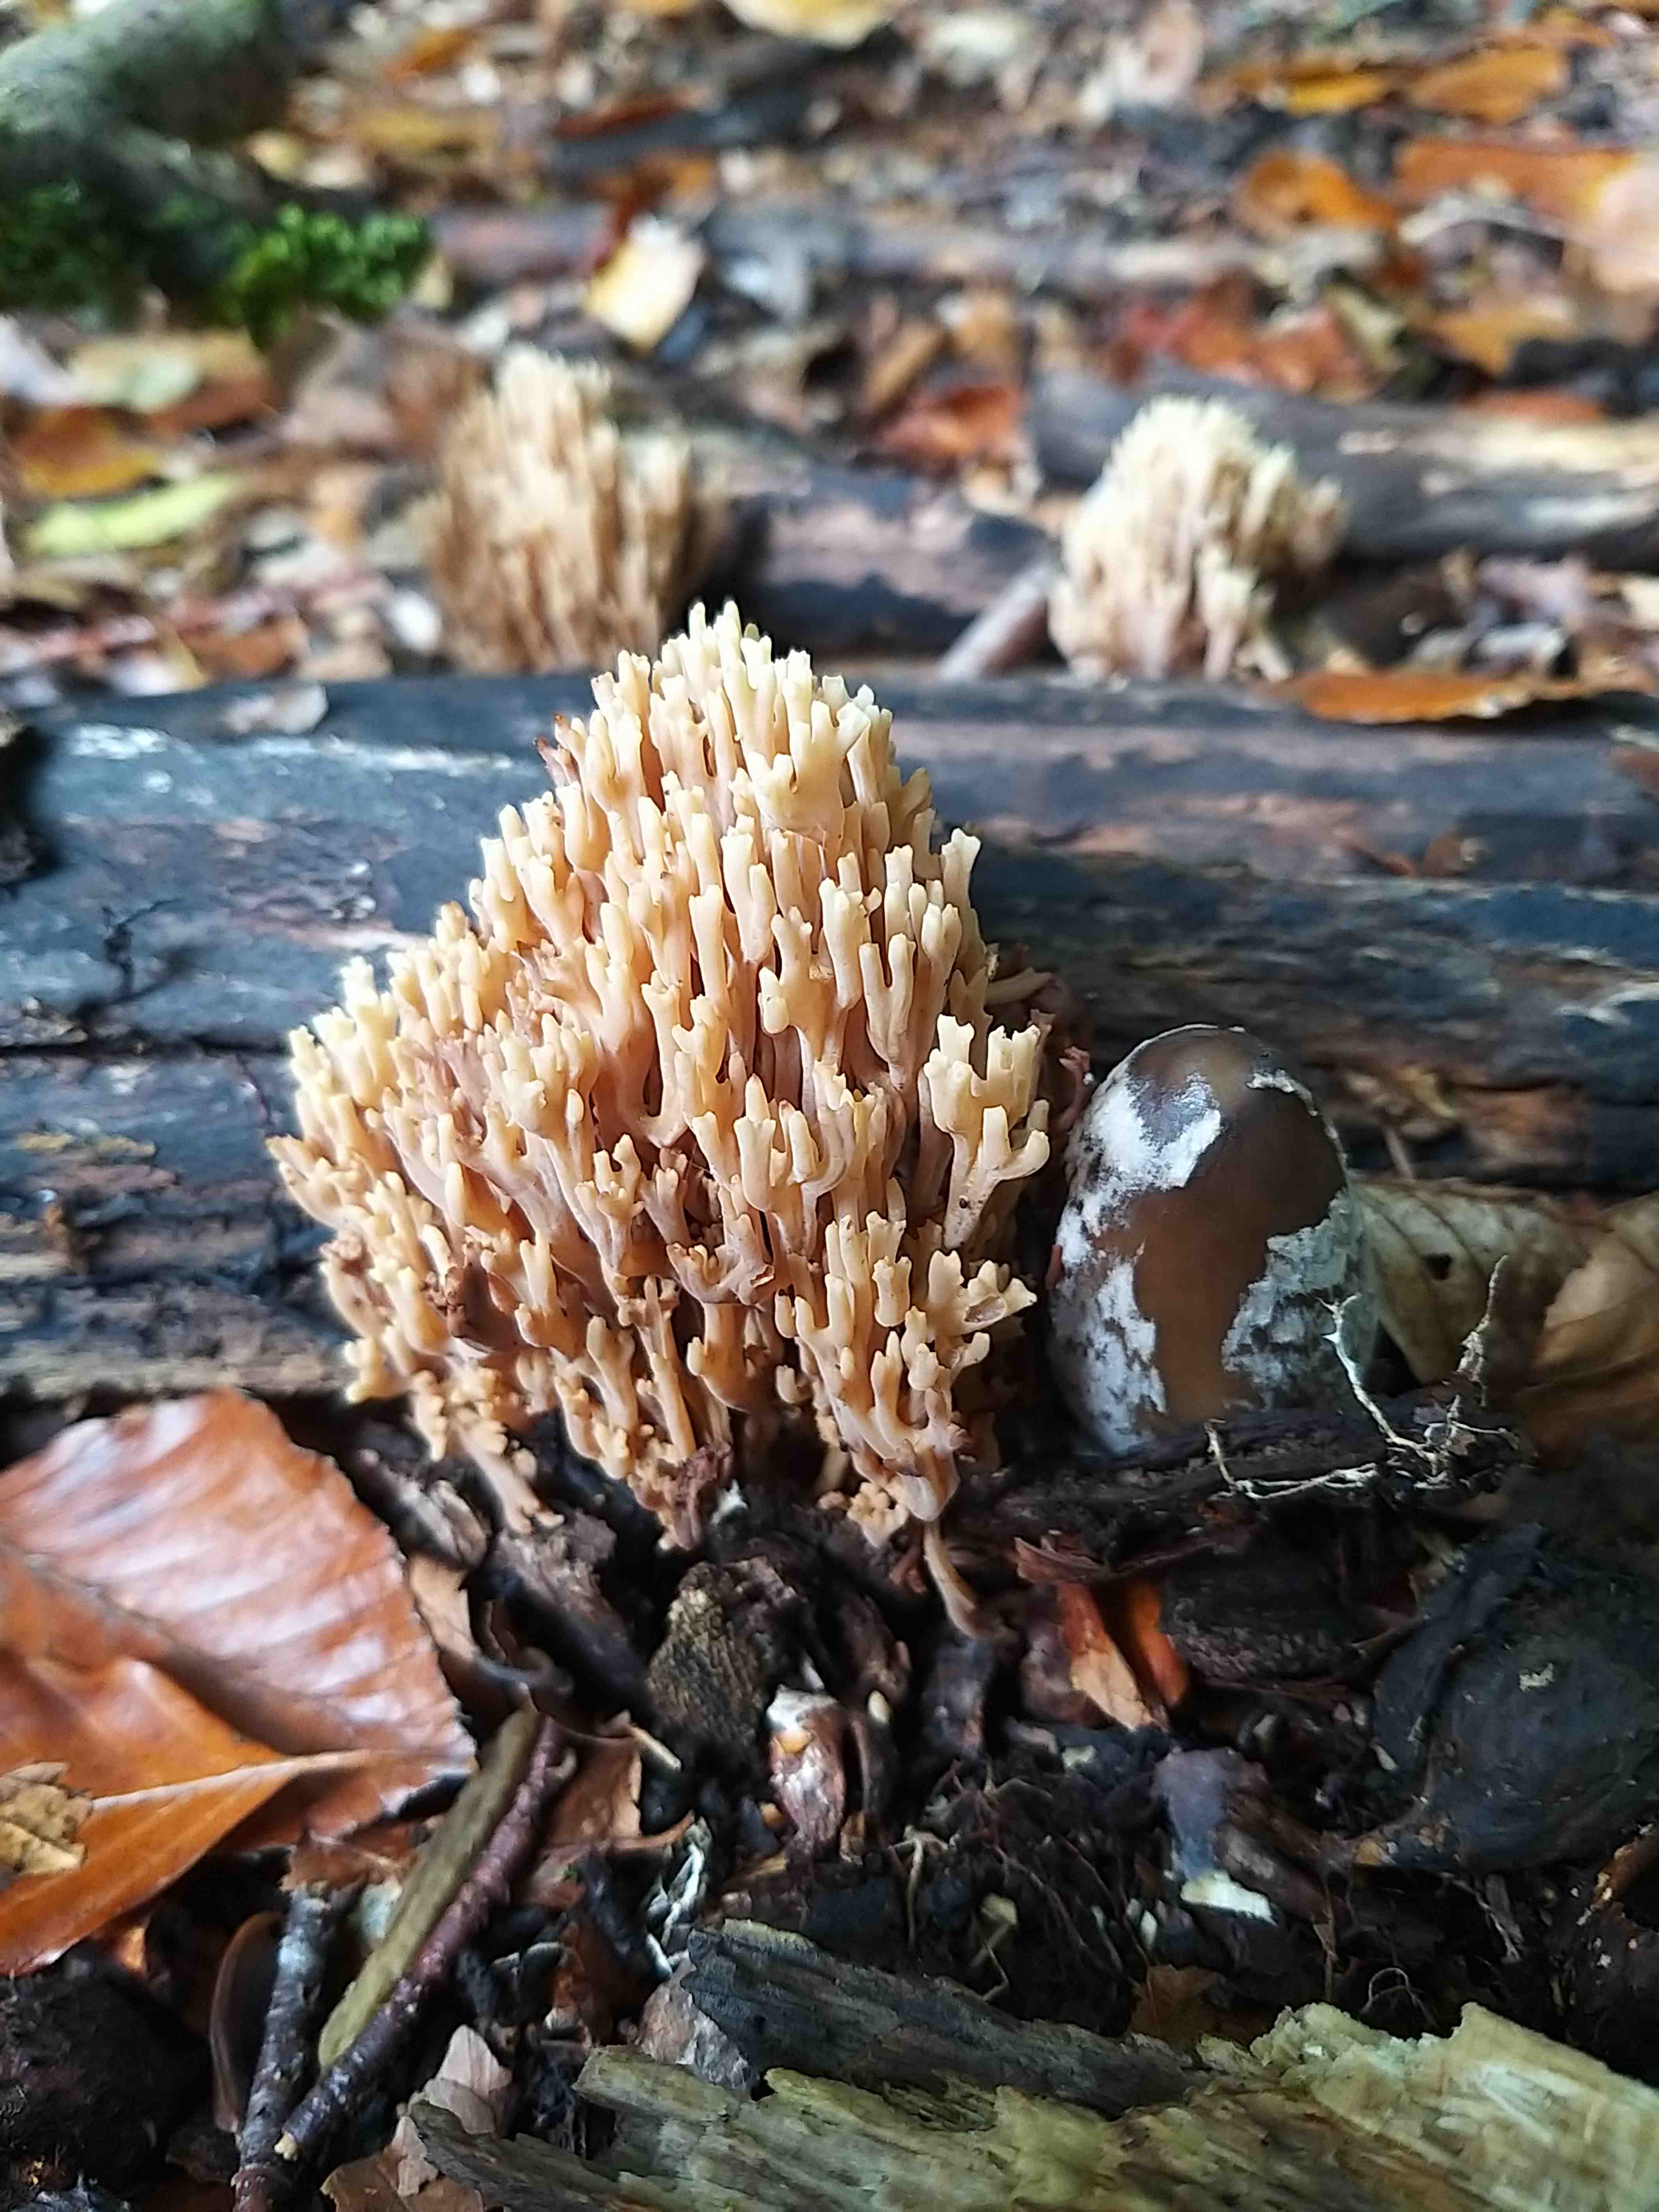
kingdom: Fungi
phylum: Basidiomycota
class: Agaricomycetes
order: Gomphales
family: Gomphaceae
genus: Ramaria
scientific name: Ramaria stricta
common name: rank koralsvamp
